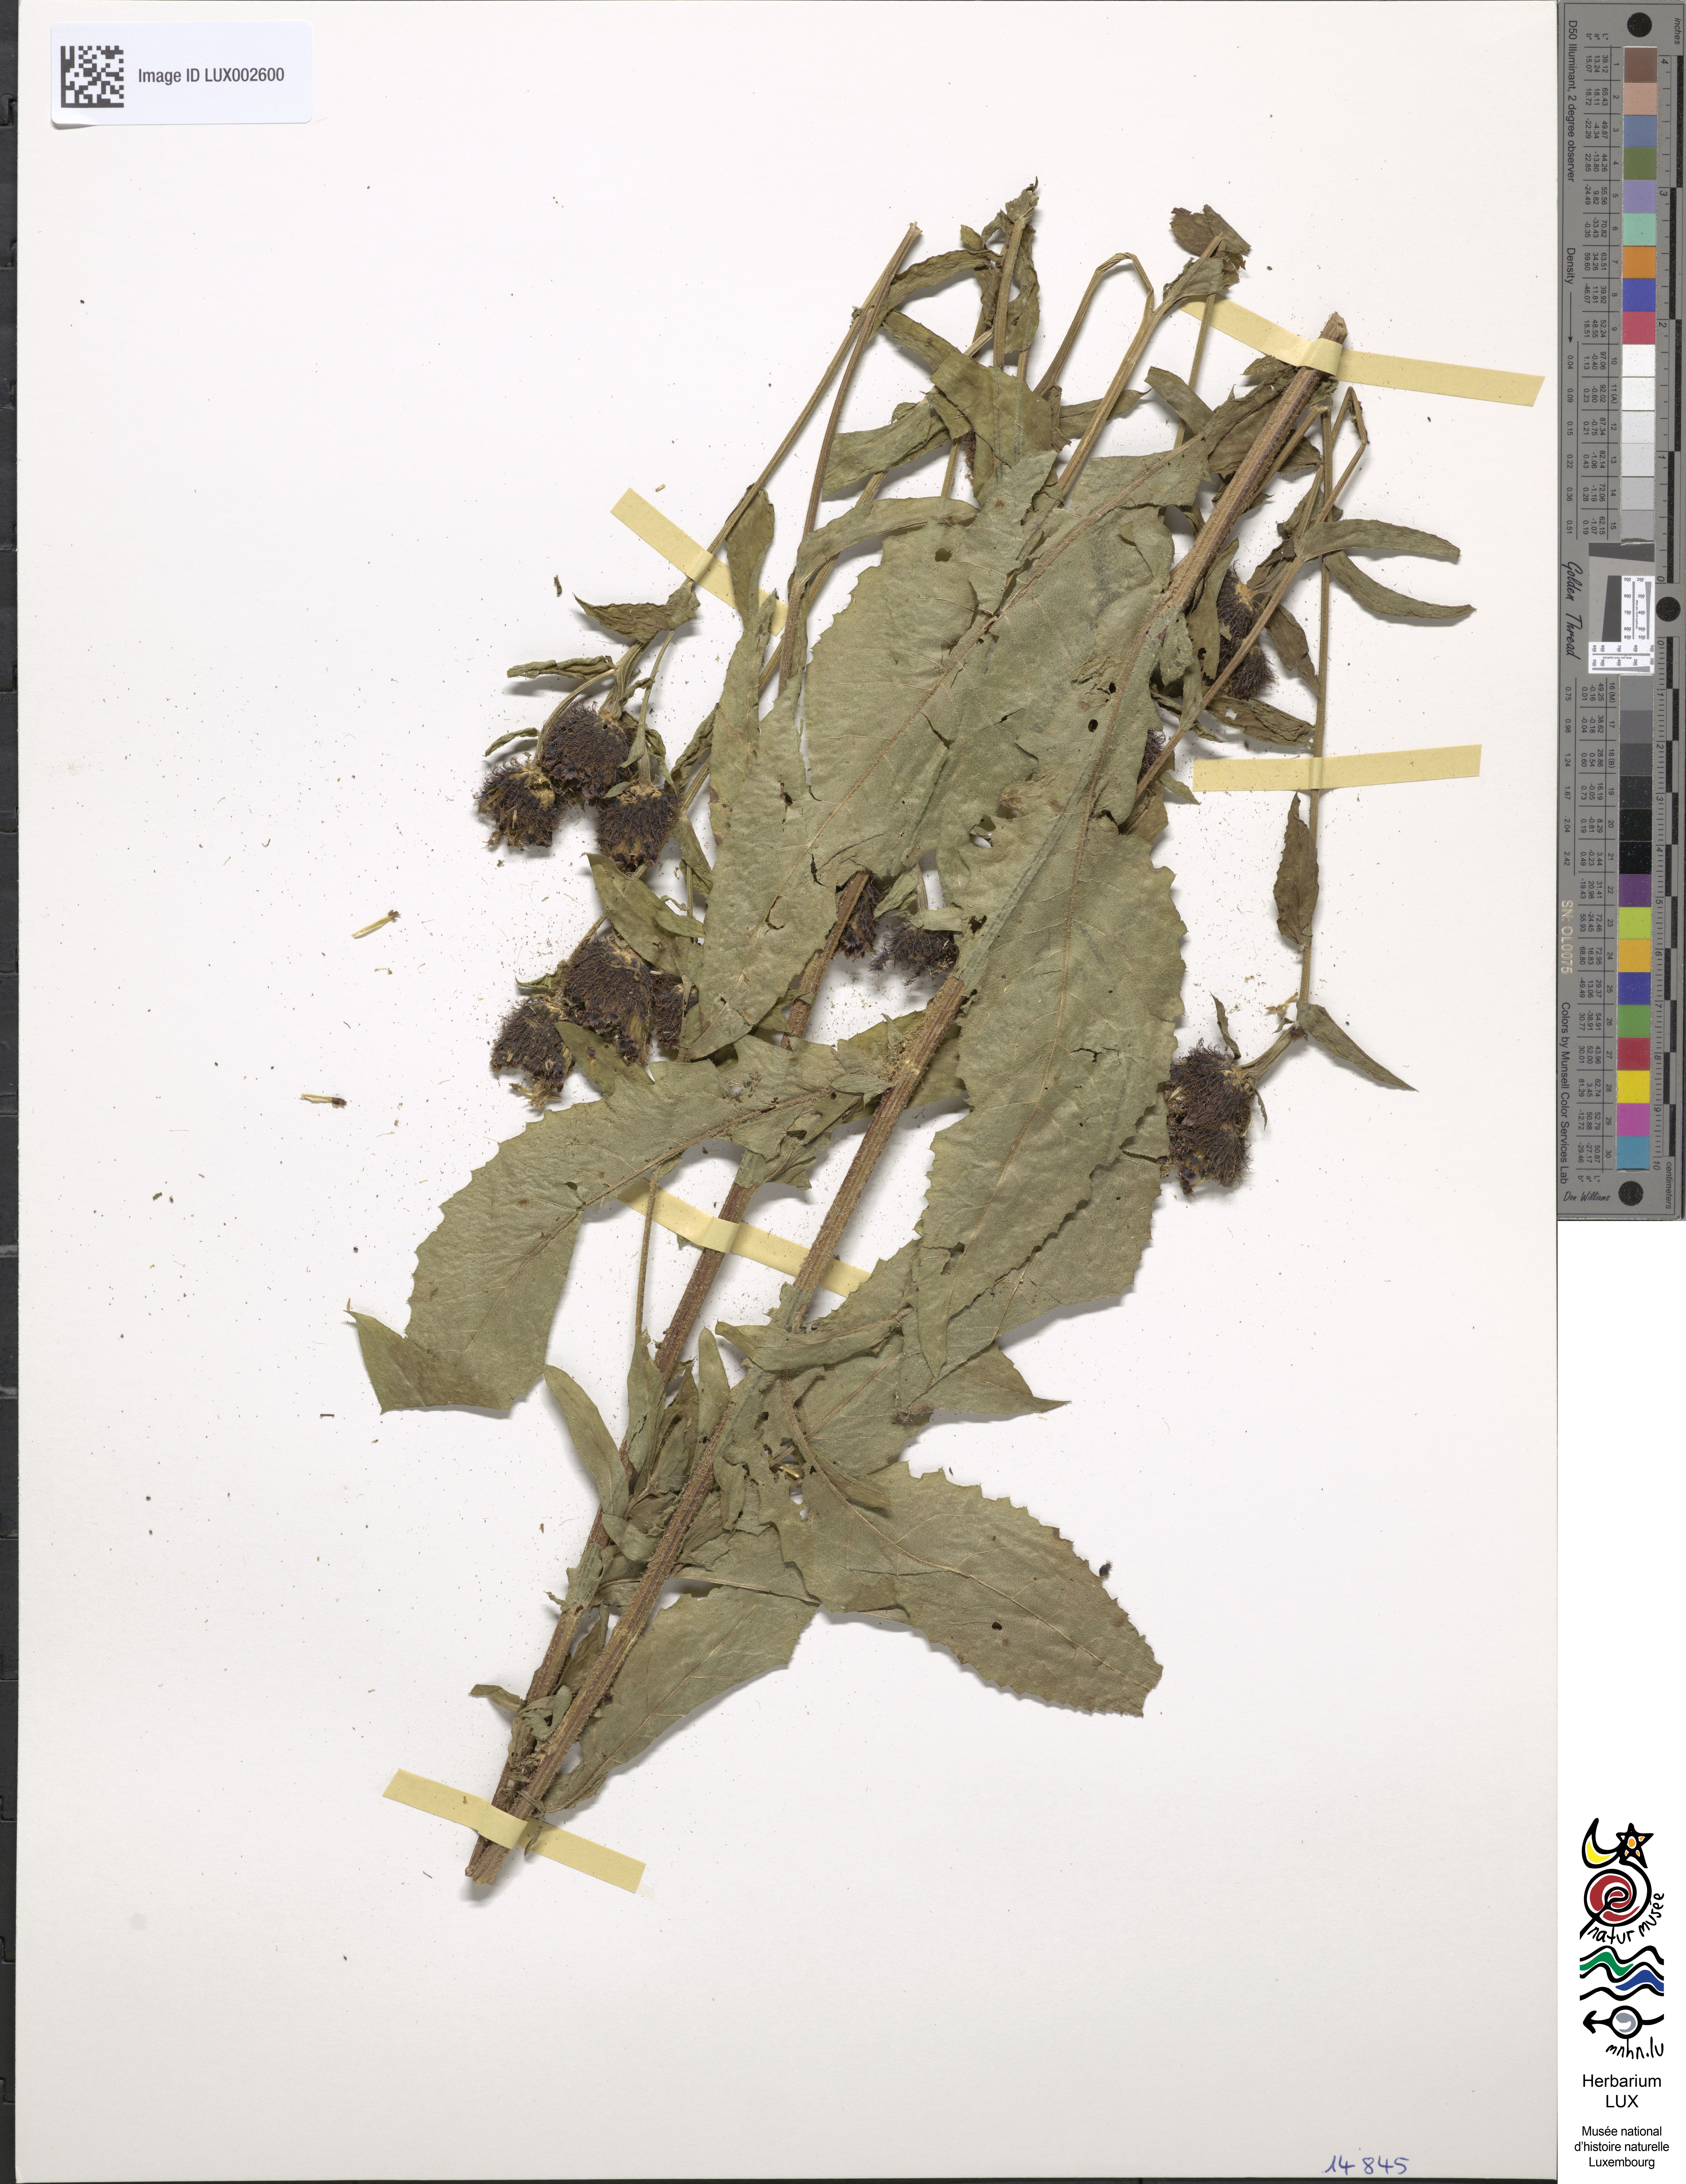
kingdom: Plantae
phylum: Tracheophyta
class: Magnoliopsida
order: Asterales
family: Asteraceae
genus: Centaurea
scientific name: Centaurea phrygia
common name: Wig knapweed
